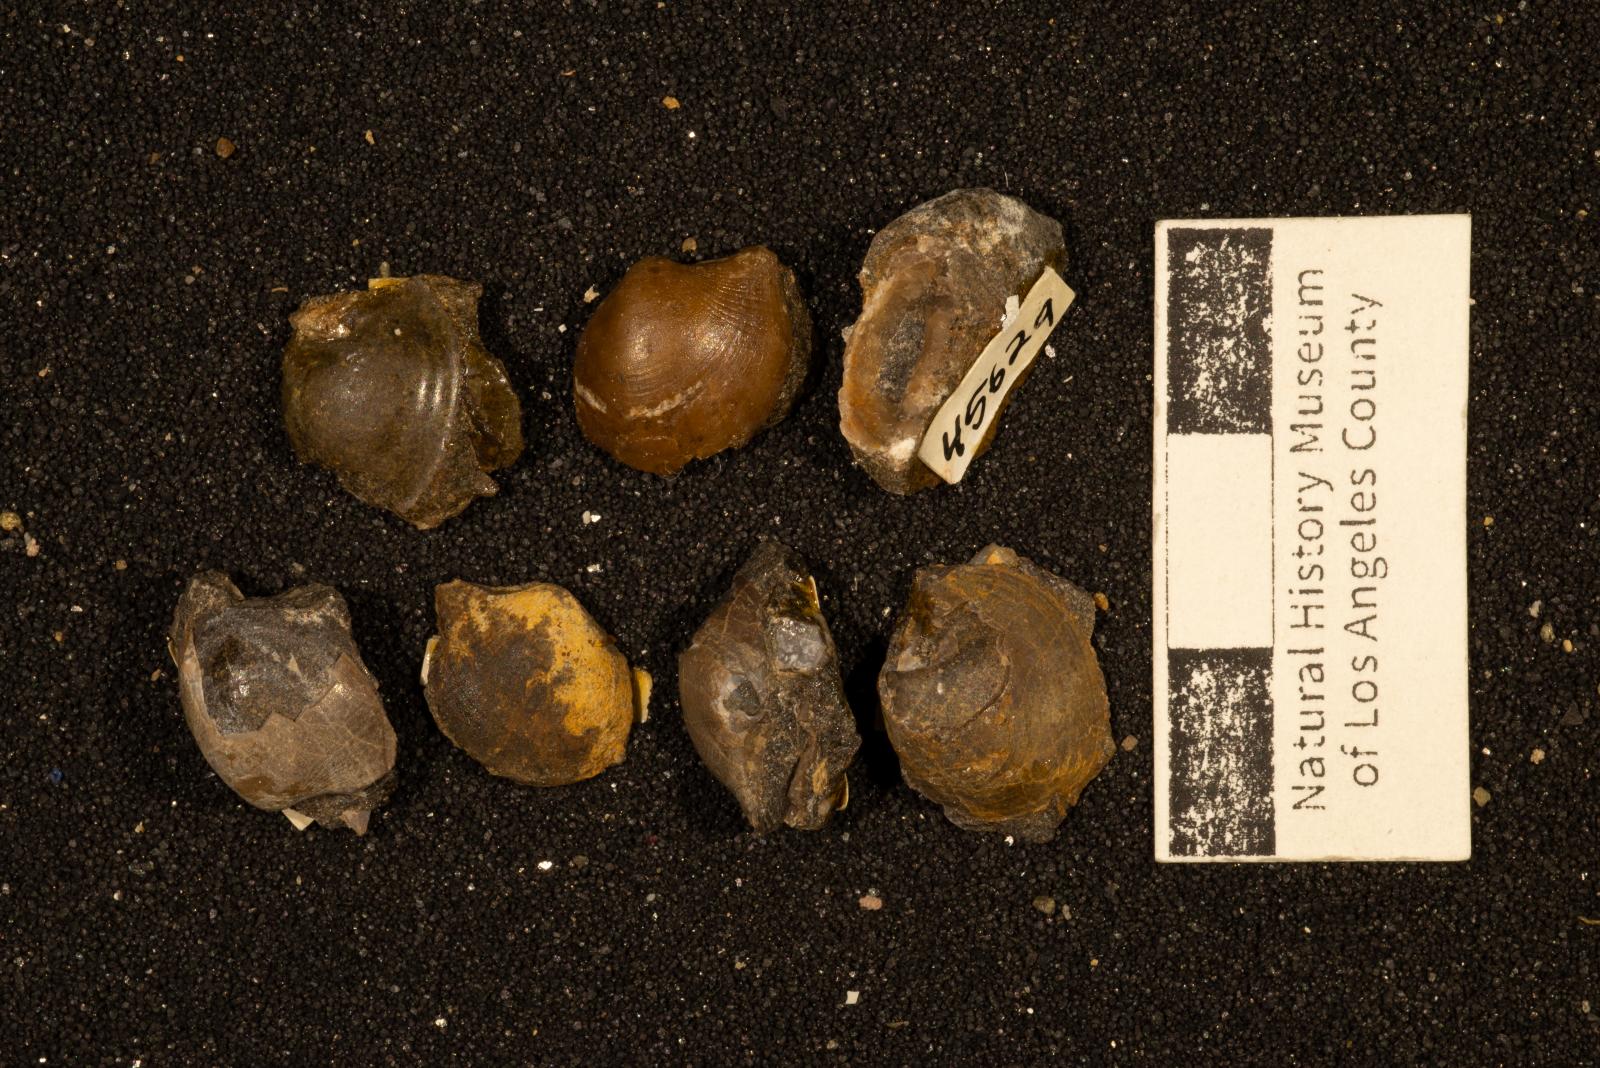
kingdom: Animalia
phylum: Mollusca
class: Bivalvia
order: Cardiida
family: Tancrediidae
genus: Meekia
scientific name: Meekia radiata
